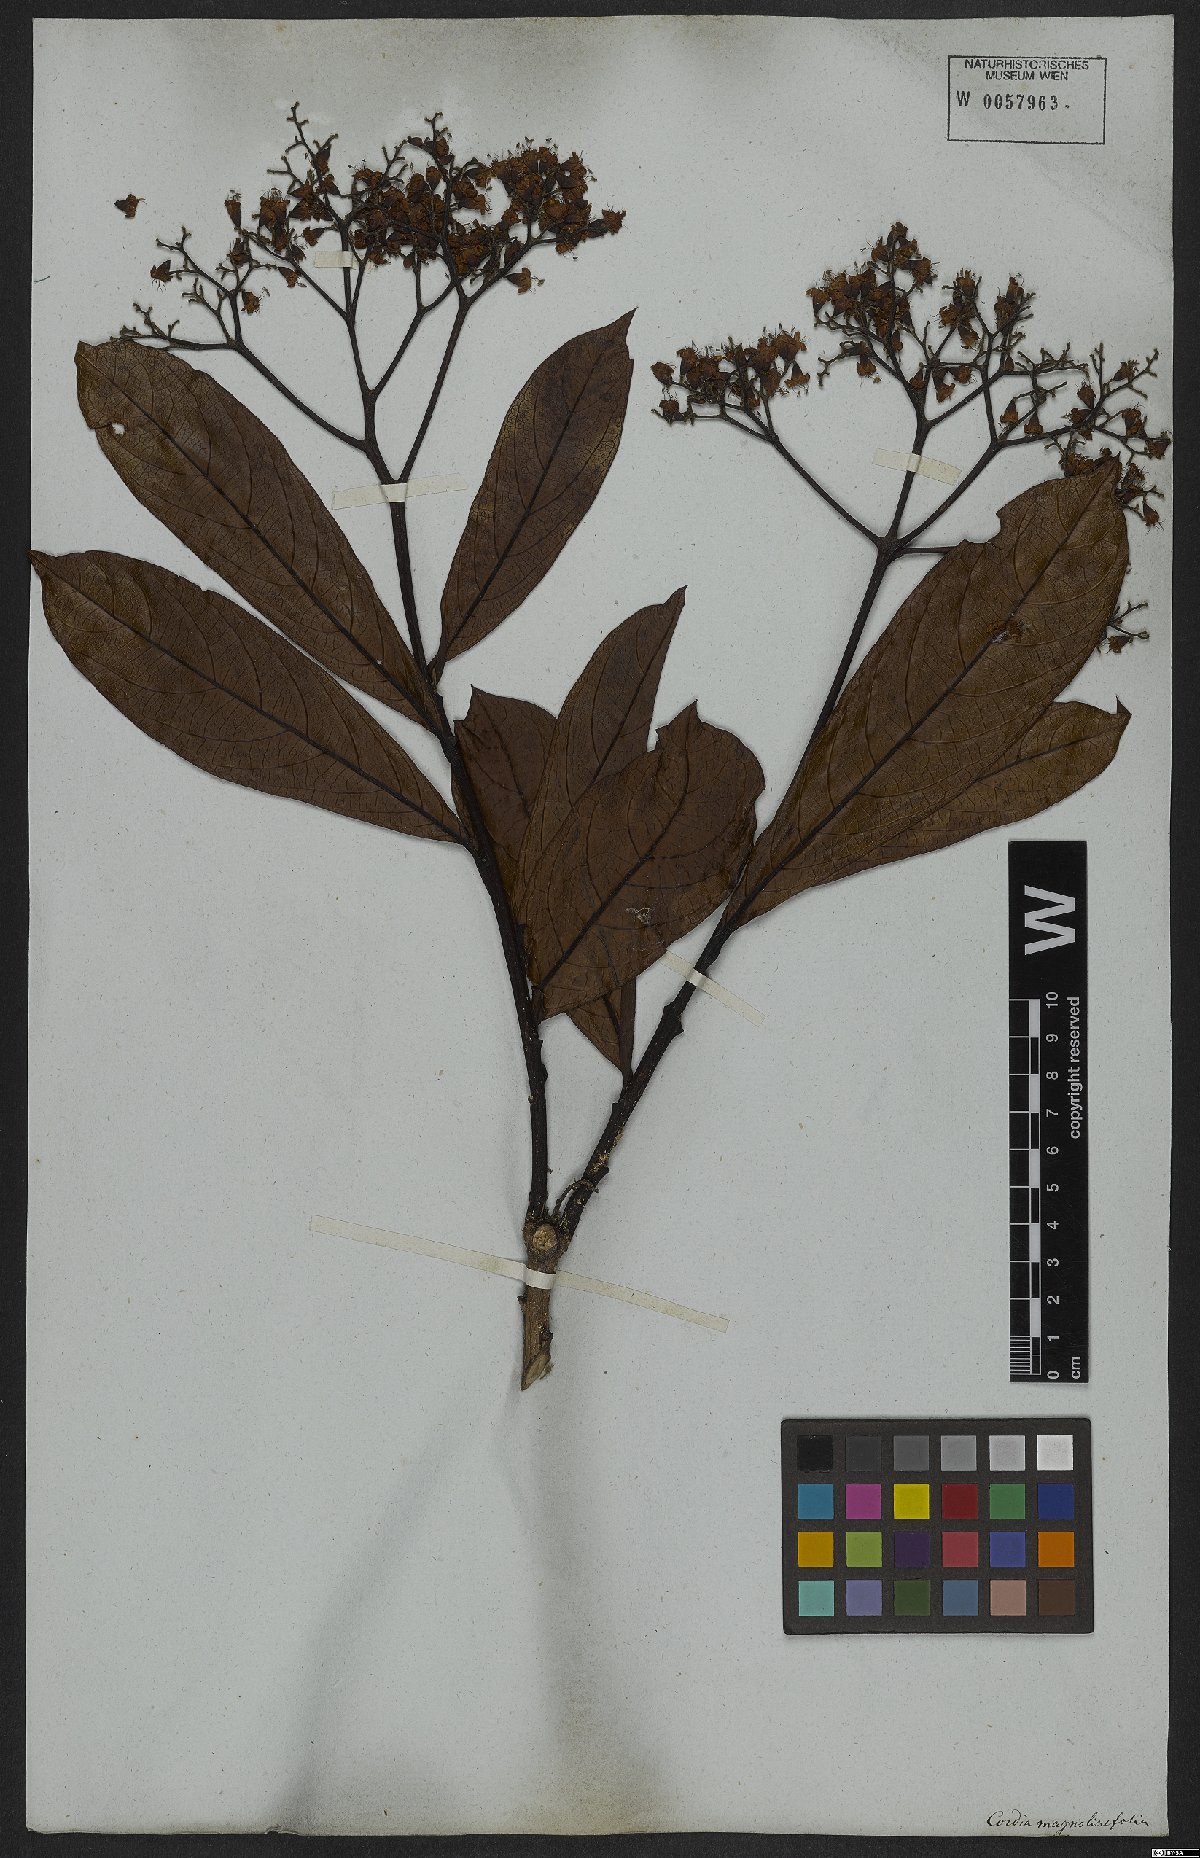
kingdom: Plantae
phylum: Tracheophyta
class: Magnoliopsida
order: Boraginales
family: Cordiaceae
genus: Cordia
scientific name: Cordia magnoliifolia
